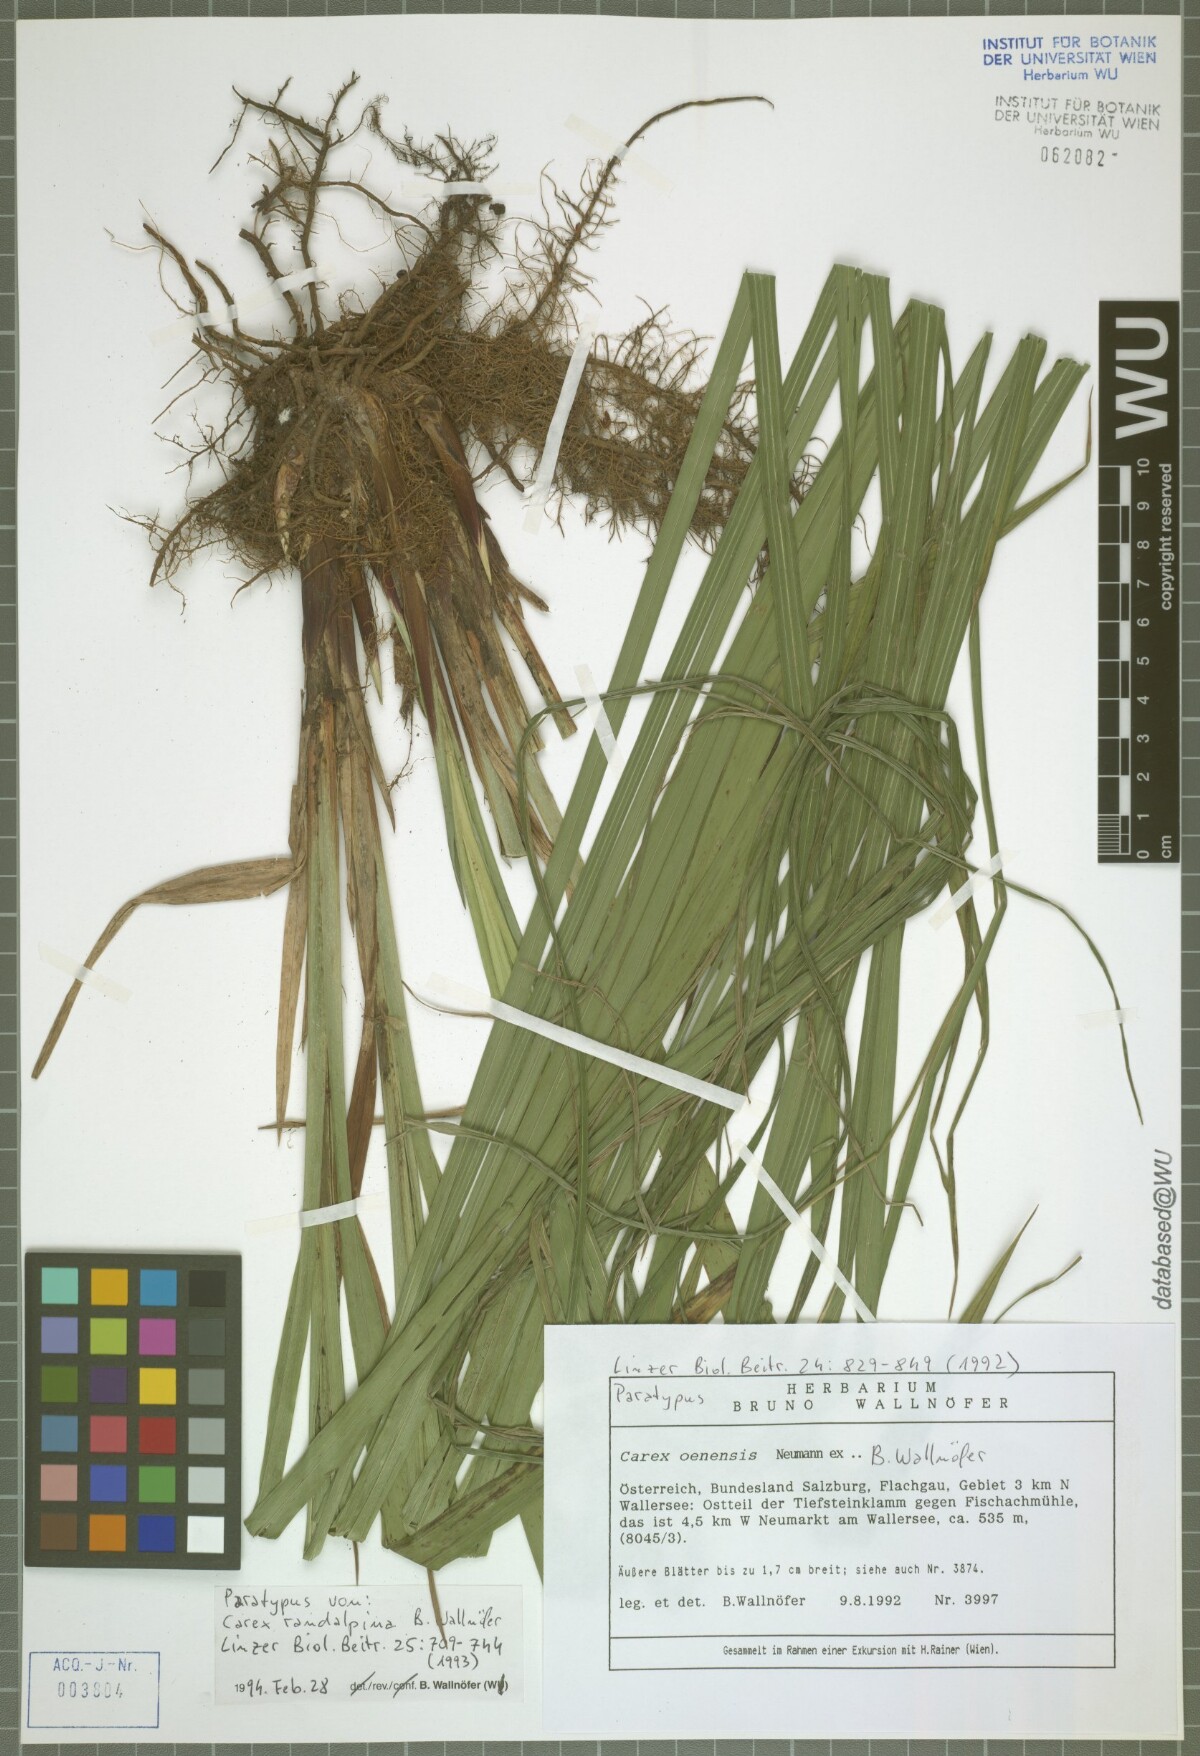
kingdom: Plantae
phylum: Tracheophyta
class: Liliopsida
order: Poales
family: Cyperaceae
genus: Carex
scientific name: Carex randalpina
